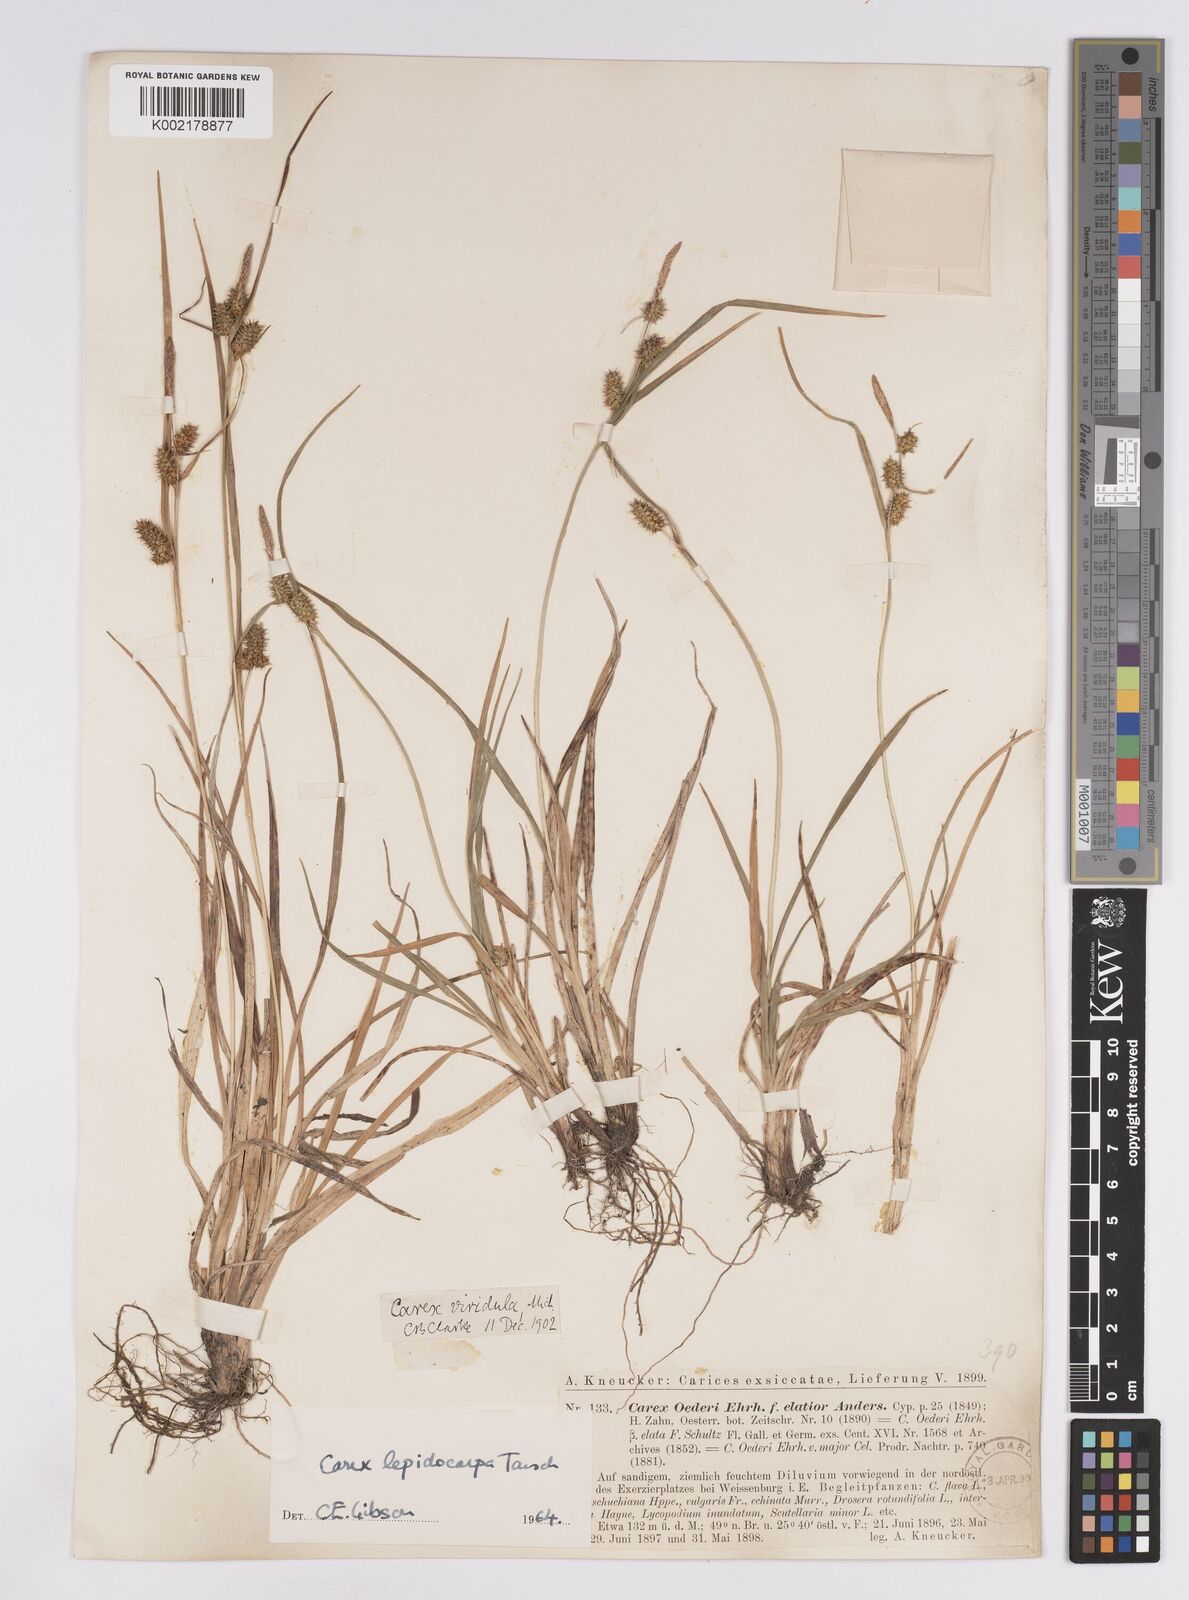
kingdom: Plantae
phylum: Tracheophyta
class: Liliopsida
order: Poales
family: Cyperaceae
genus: Carex
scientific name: Carex lepidocarpa
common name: Long-stalked yellow-sedge
